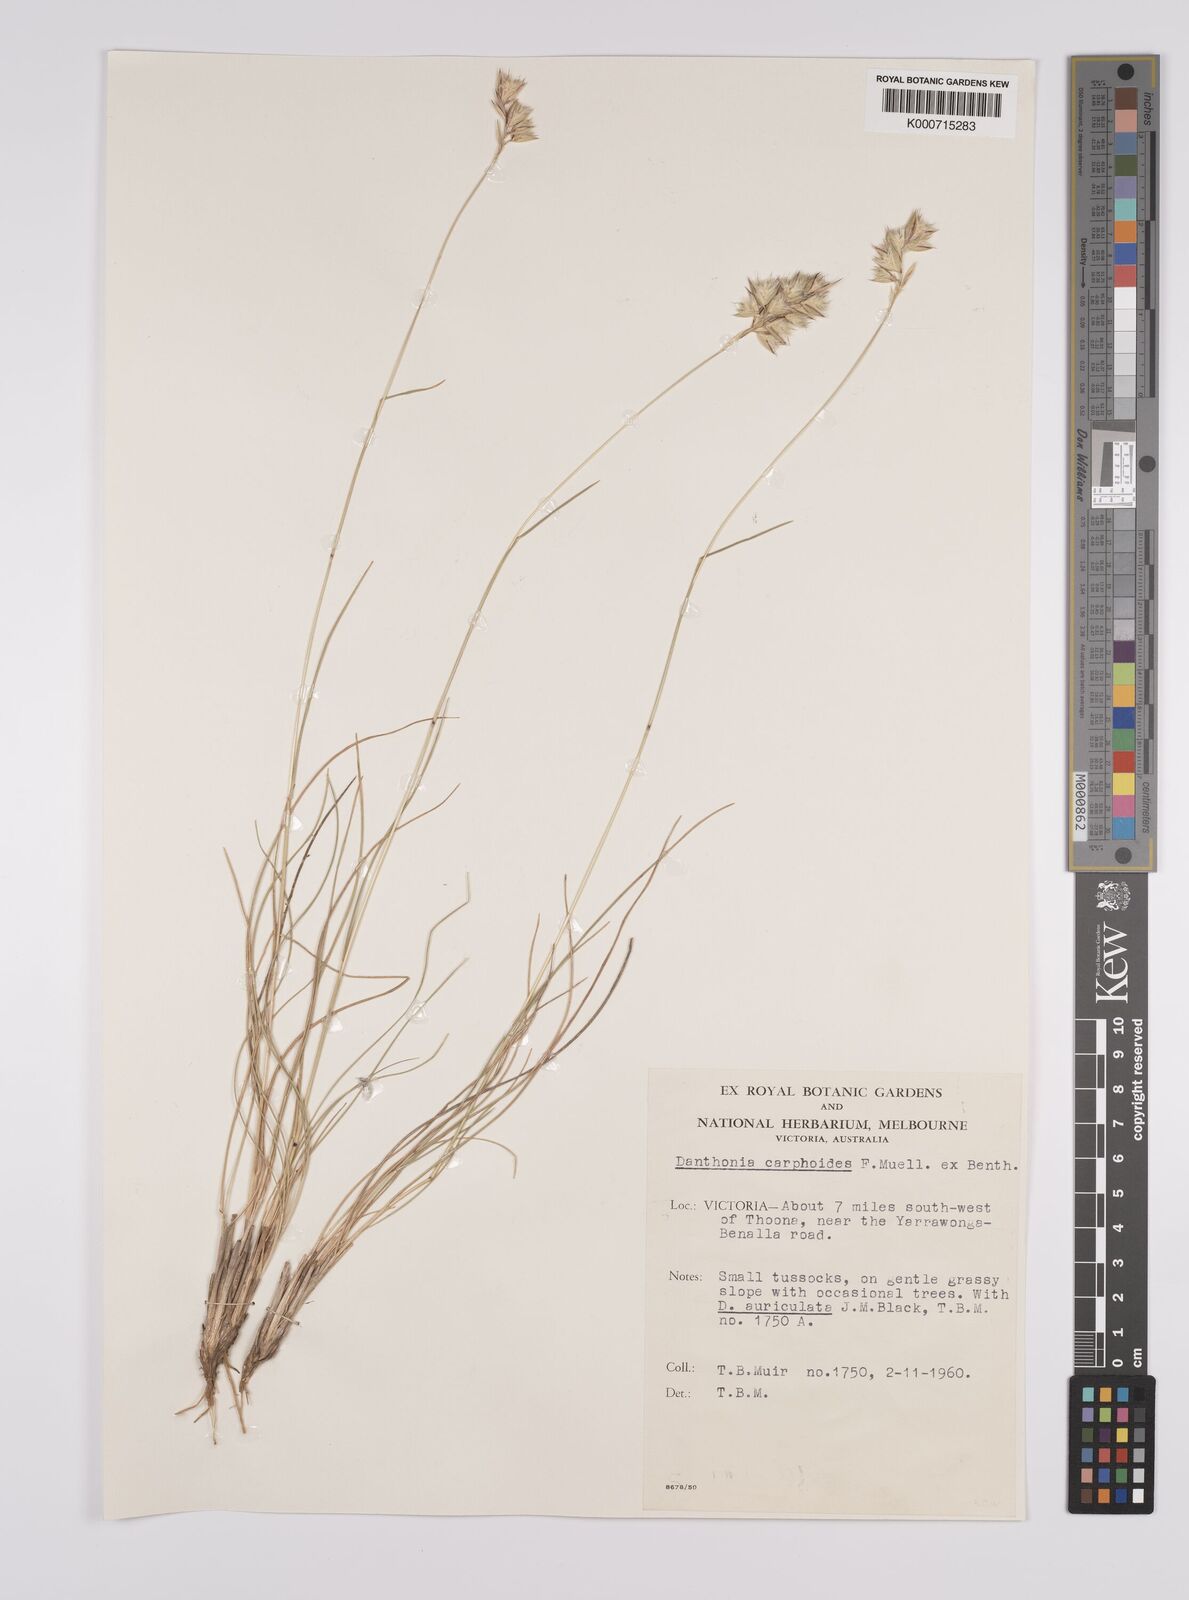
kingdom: Plantae
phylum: Tracheophyta
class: Liliopsida
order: Poales
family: Poaceae
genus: Rytidosperma
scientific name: Rytidosperma carphoides
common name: Short wallaby grass
